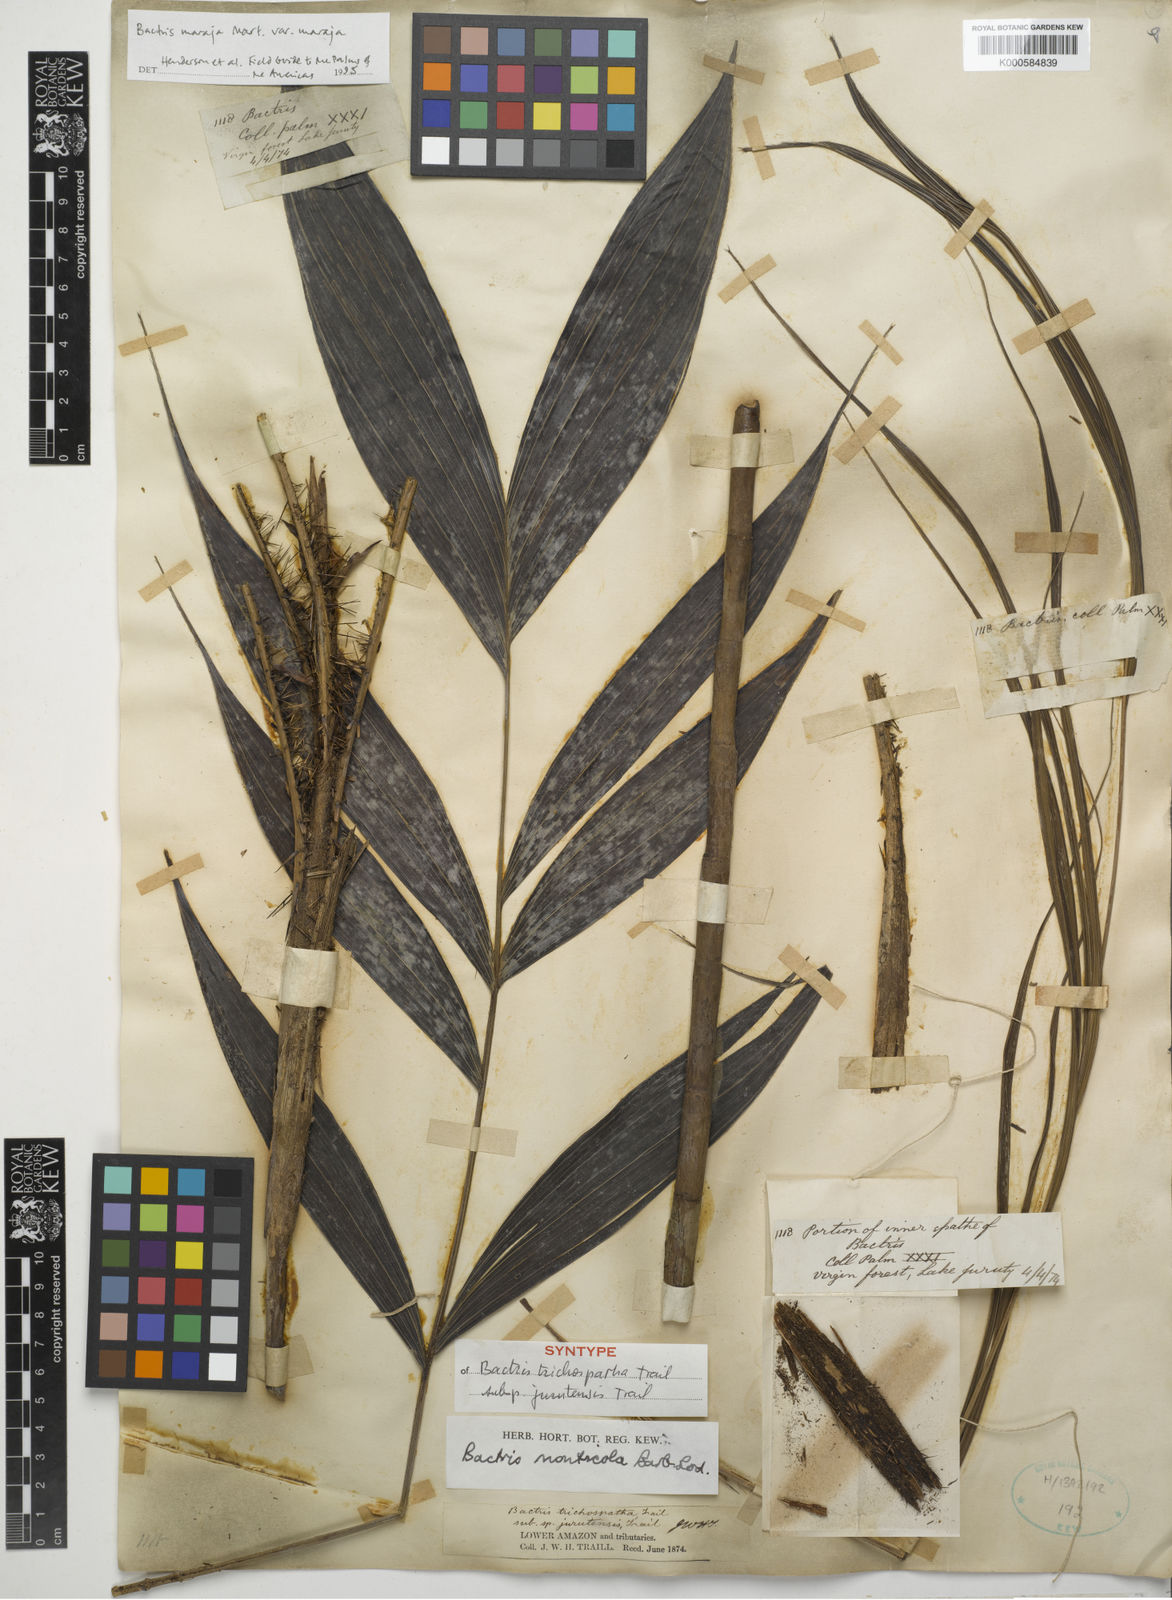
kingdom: Plantae
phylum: Tracheophyta
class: Liliopsida
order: Arecales
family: Arecaceae
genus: Bactris
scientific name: Bactris maraja
